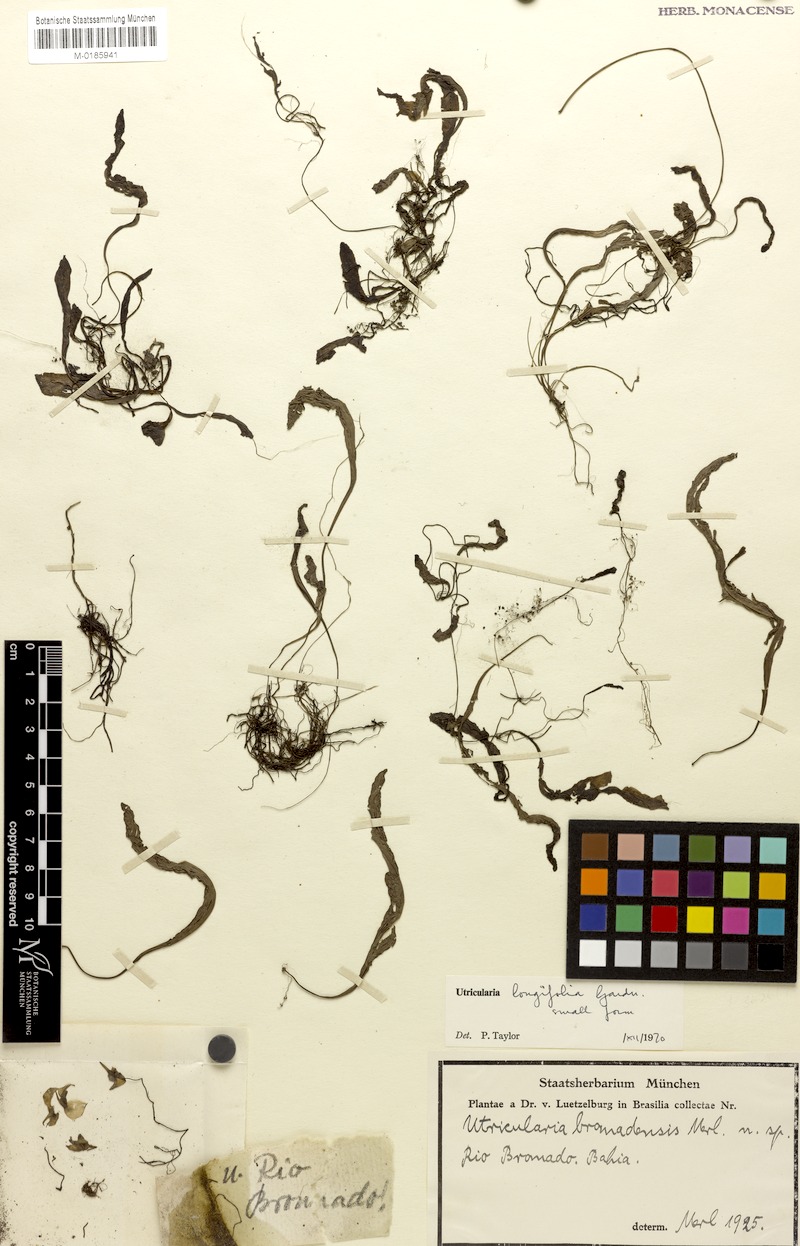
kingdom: Plantae
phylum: Tracheophyta
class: Magnoliopsida
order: Lamiales
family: Lentibulariaceae
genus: Utricularia
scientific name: Utricularia longifolia
